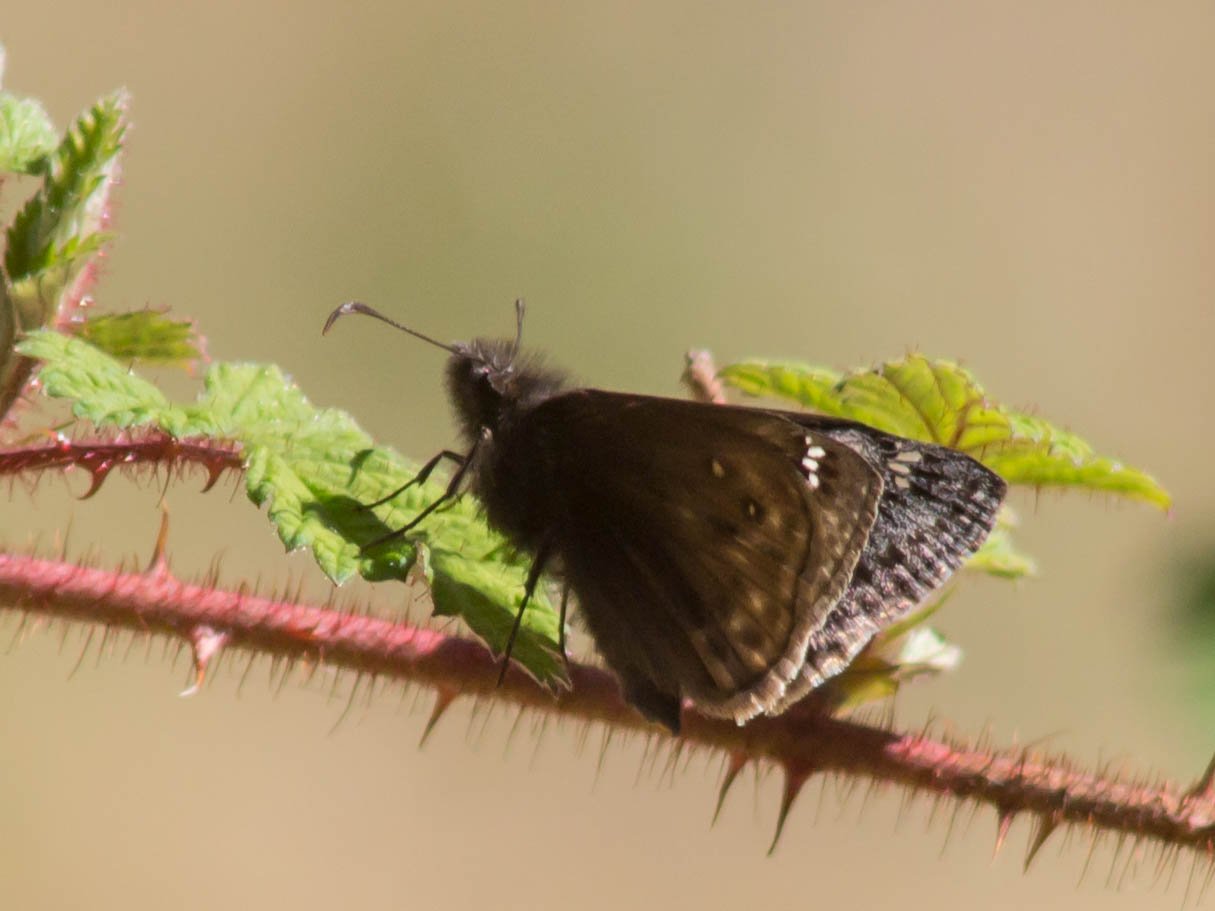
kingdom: Animalia
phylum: Arthropoda
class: Insecta
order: Lepidoptera
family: Hesperiidae
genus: Gesta
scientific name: Gesta
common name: Juvenal's Duskywing
